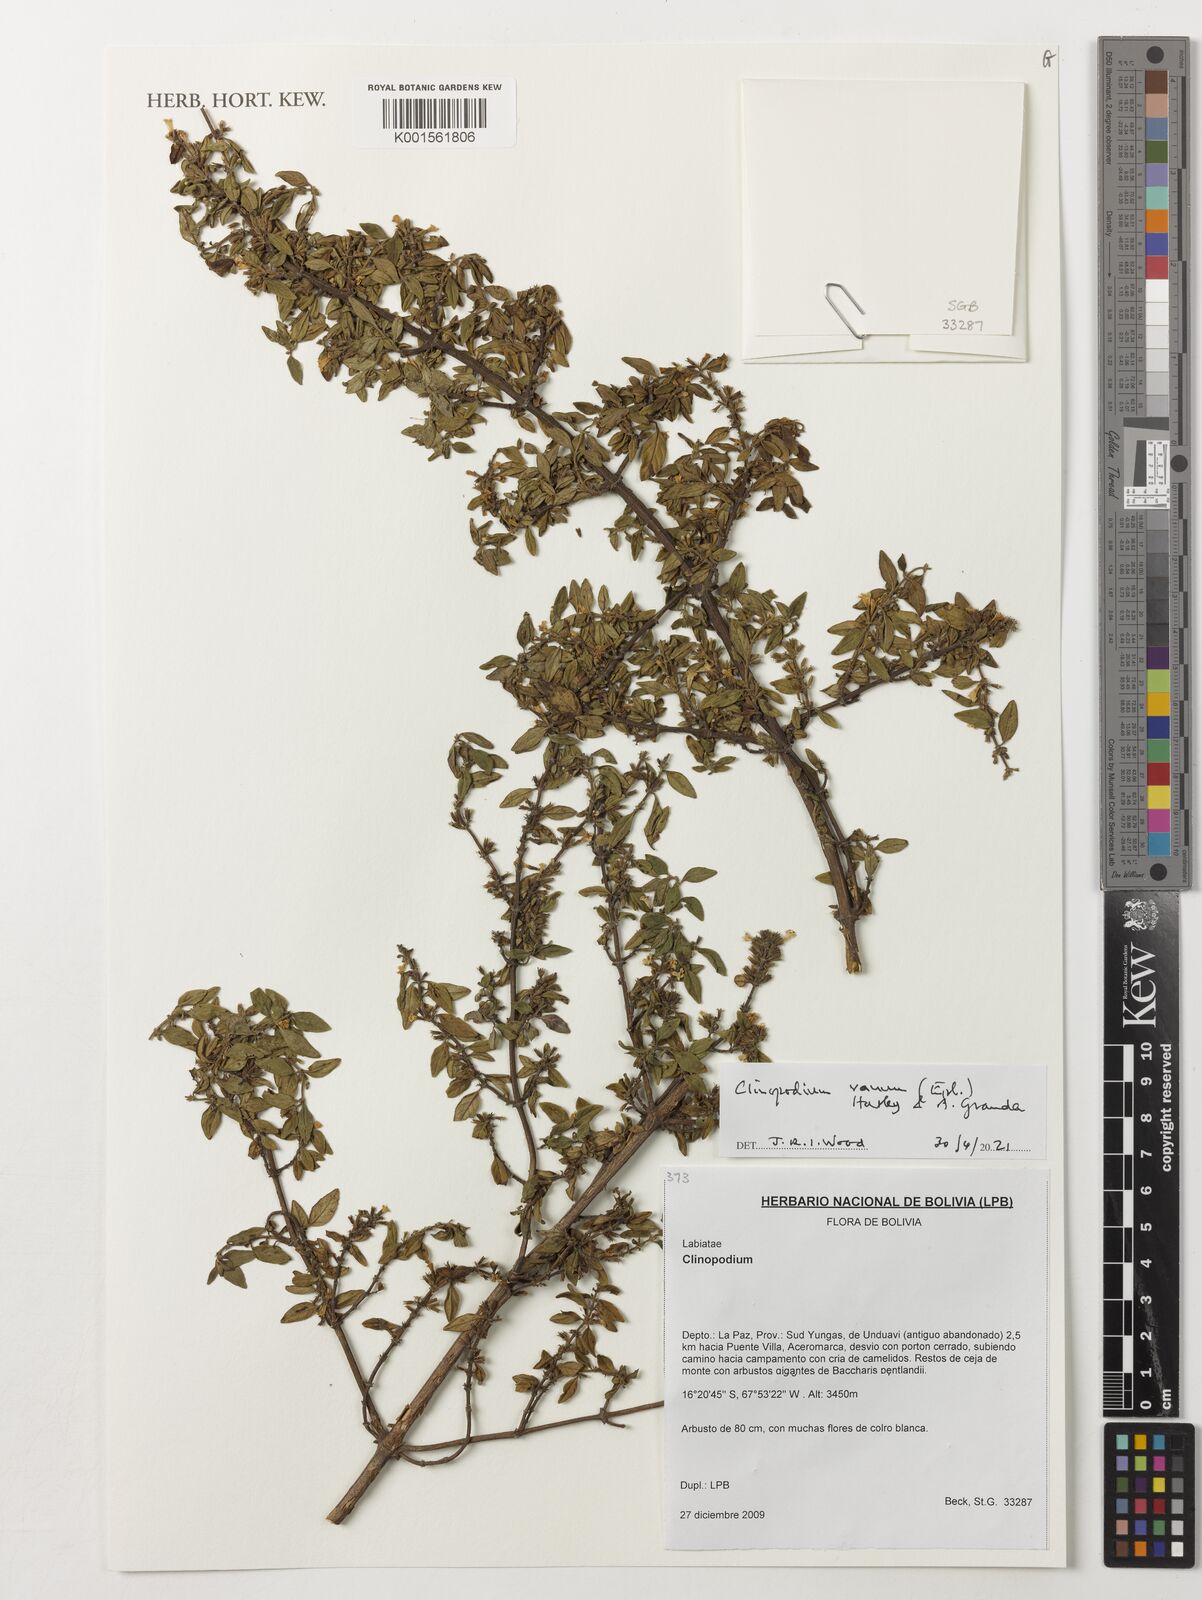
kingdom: Plantae
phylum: Tracheophyta
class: Magnoliopsida
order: Lamiales
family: Lamiaceae
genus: Clinopodium
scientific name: Clinopodium vanum
